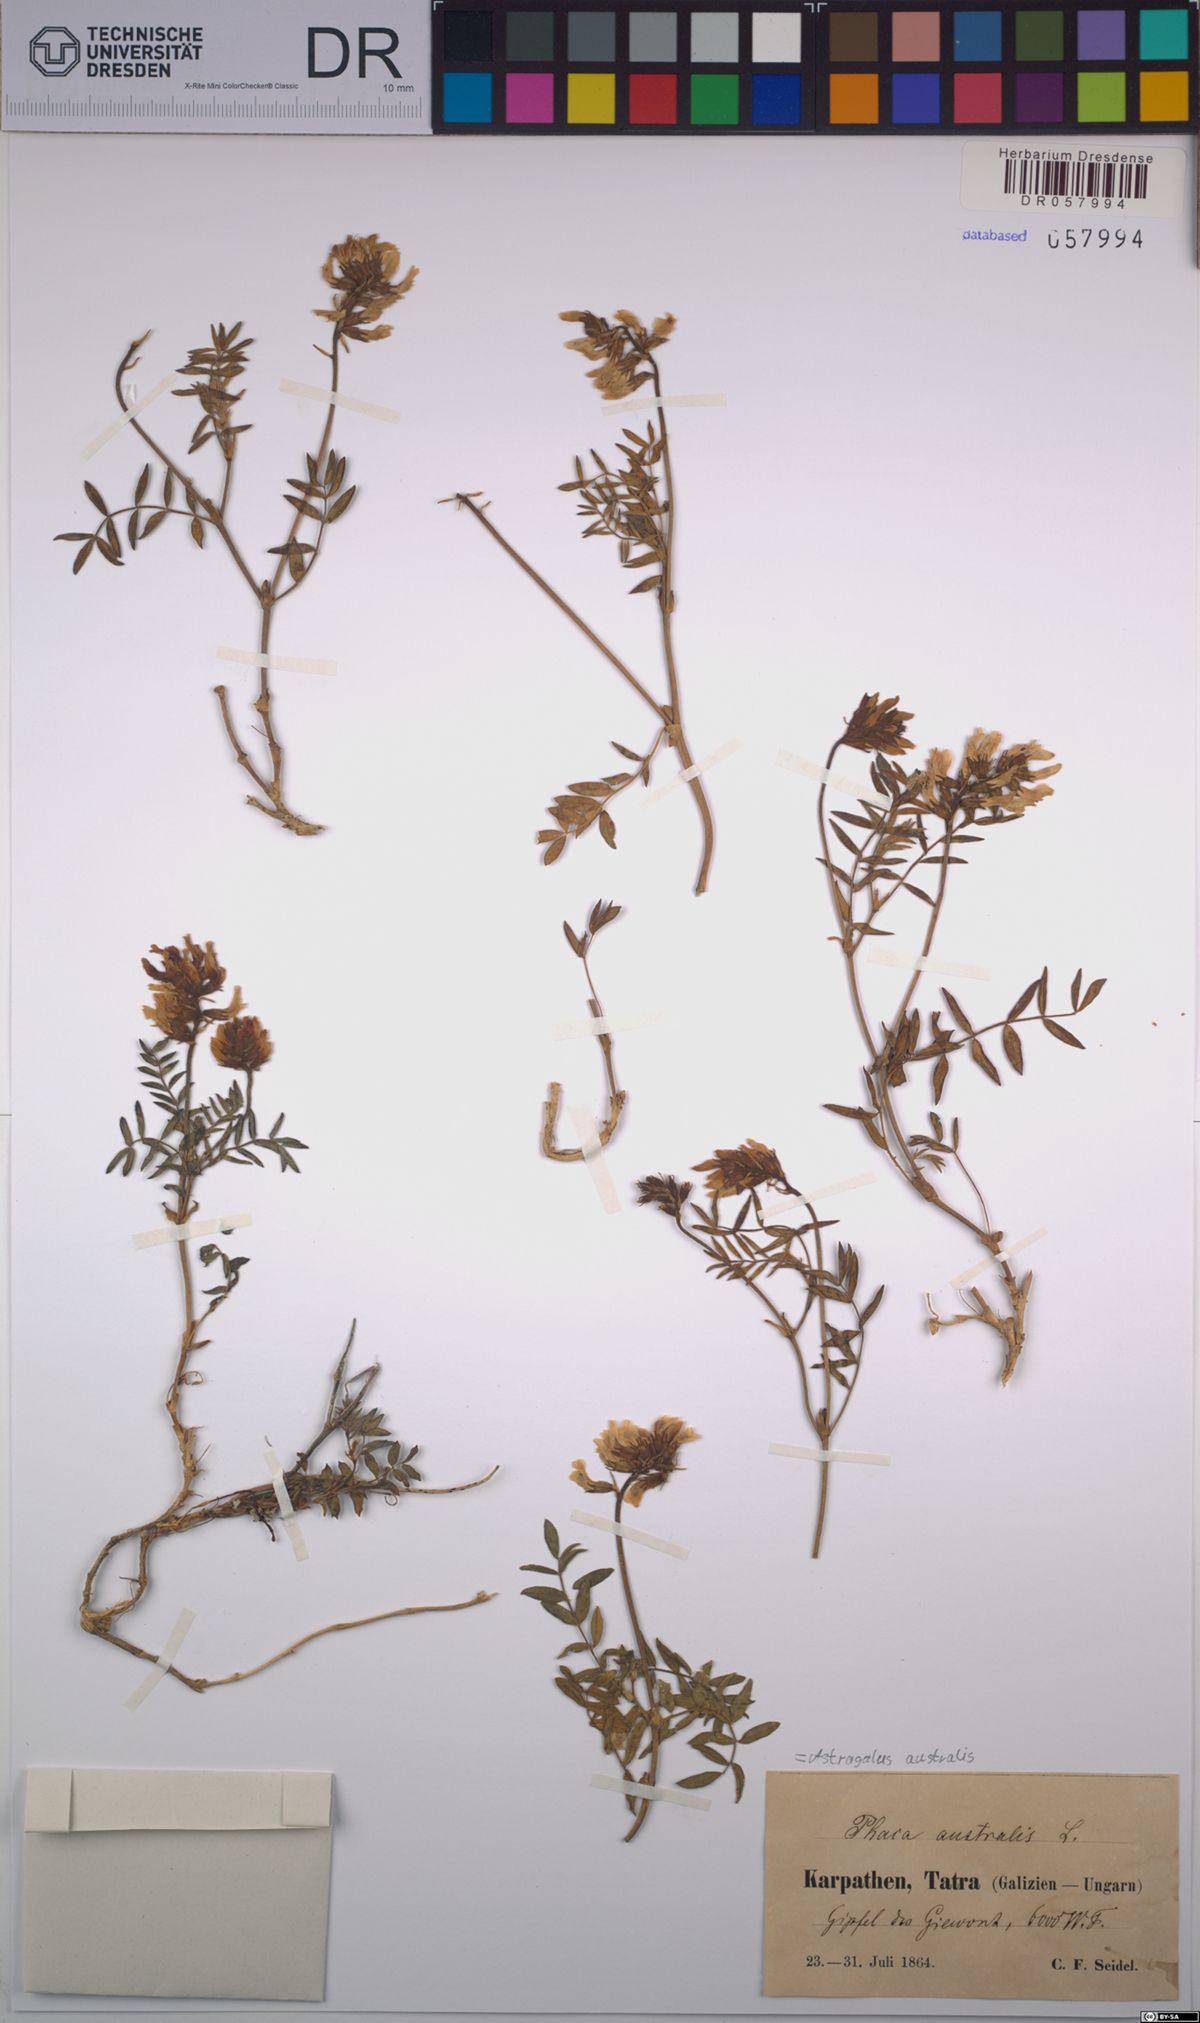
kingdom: Plantae
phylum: Tracheophyta
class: Magnoliopsida
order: Fabales
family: Fabaceae
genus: Astragalus
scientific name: Astragalus australis
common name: Indian milk-vetch
